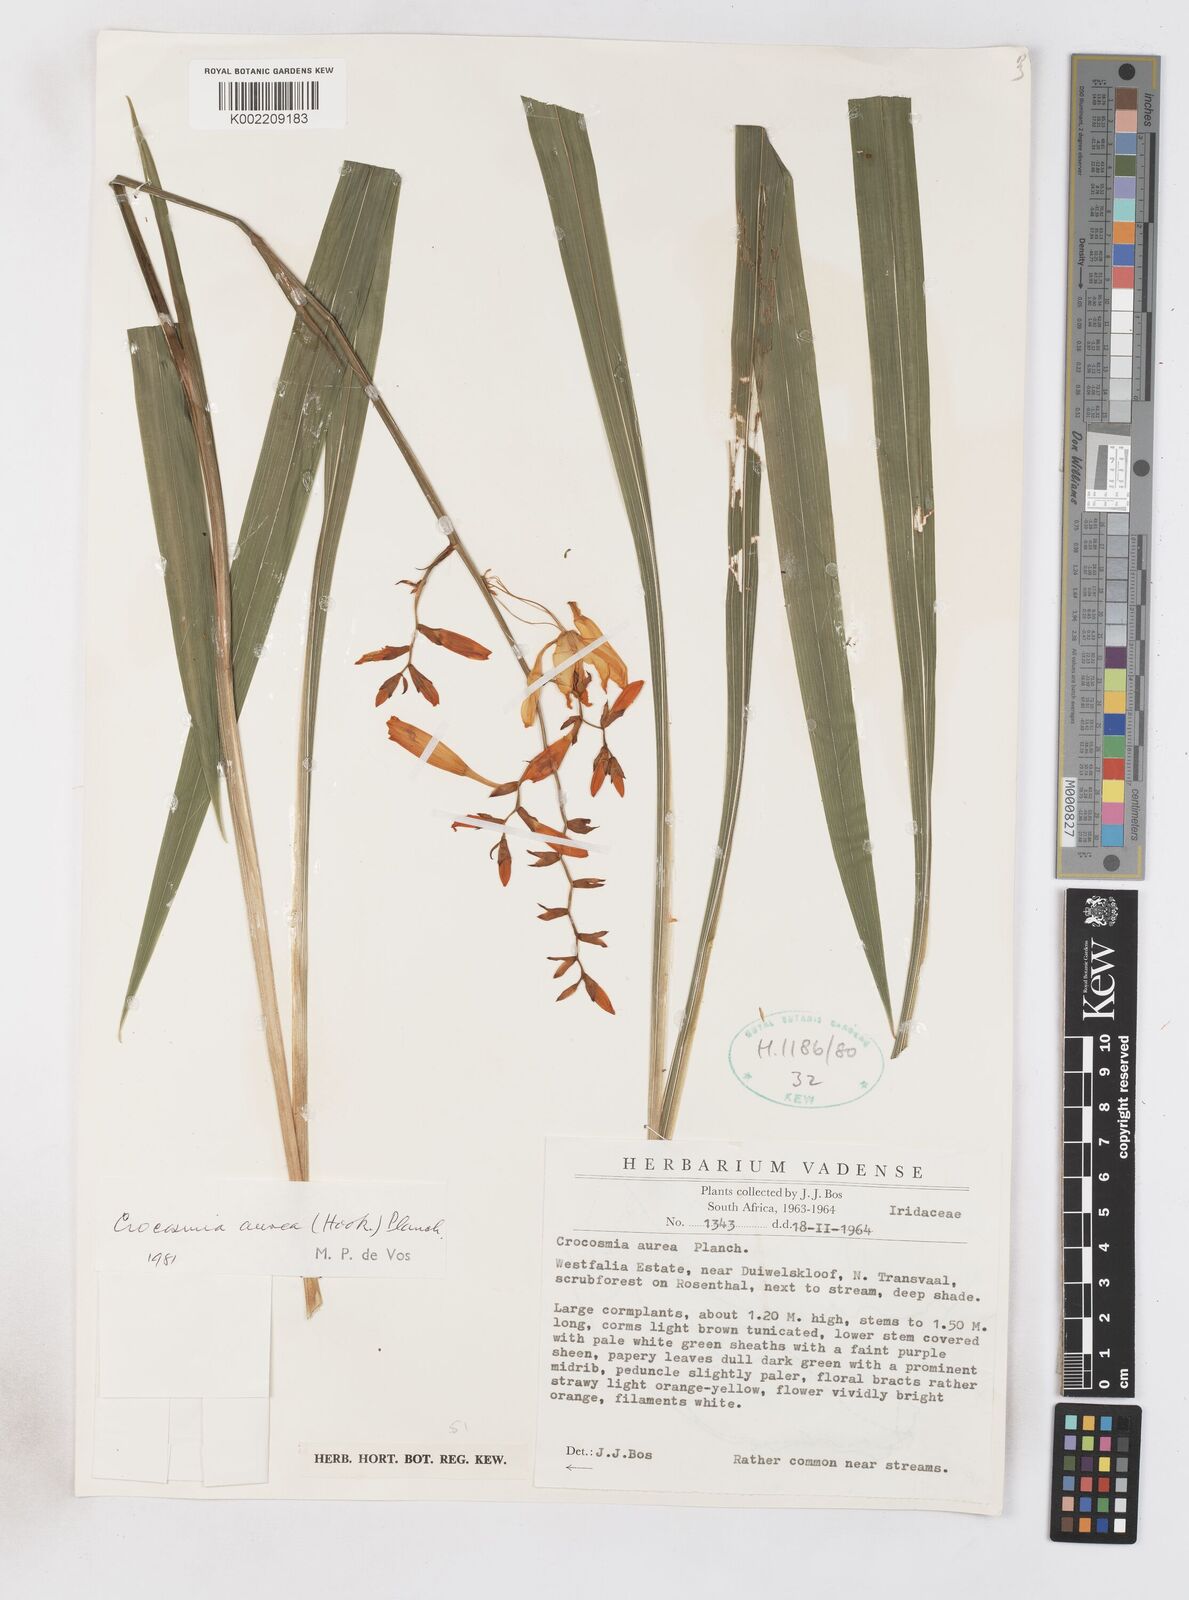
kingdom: Plantae
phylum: Tracheophyta
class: Liliopsida
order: Asparagales
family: Iridaceae
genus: Crocosmia
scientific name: Crocosmia aurea
